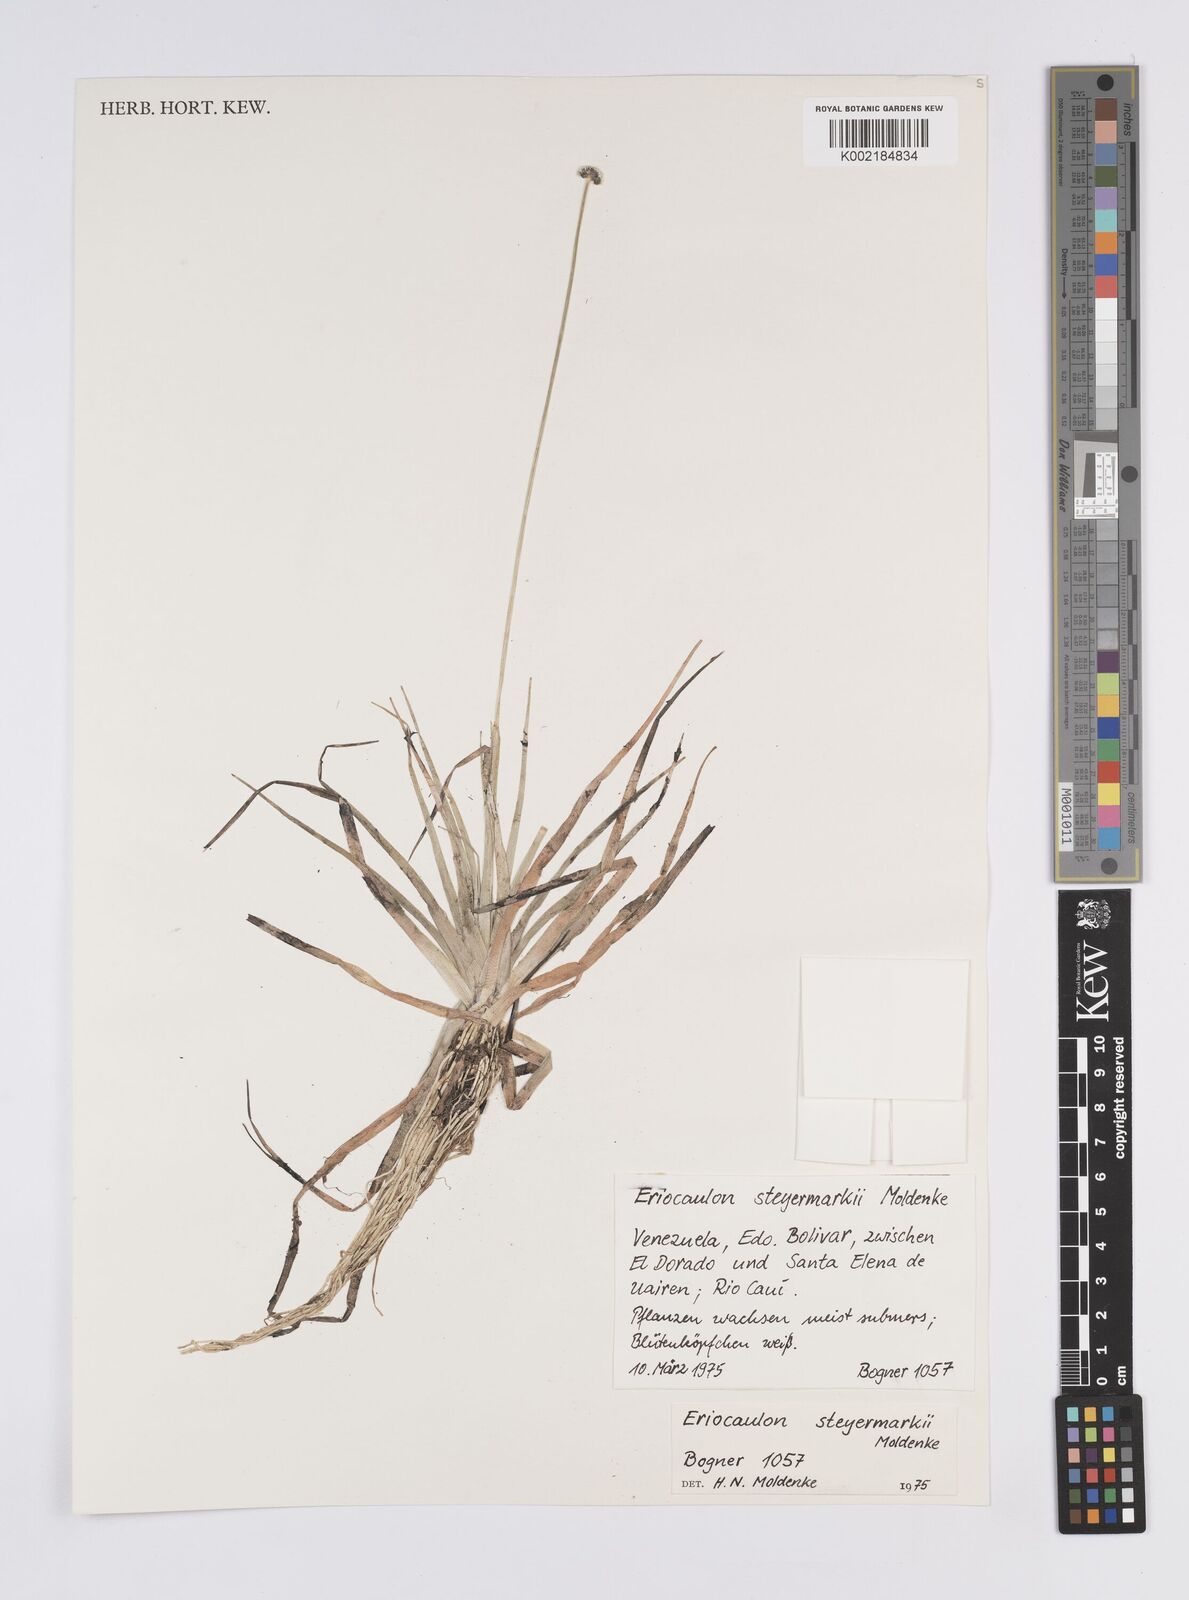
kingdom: Plantae
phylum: Tracheophyta
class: Liliopsida
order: Poales
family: Eriocaulaceae
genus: Eriocaulon
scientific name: Eriocaulon steyermarkii
